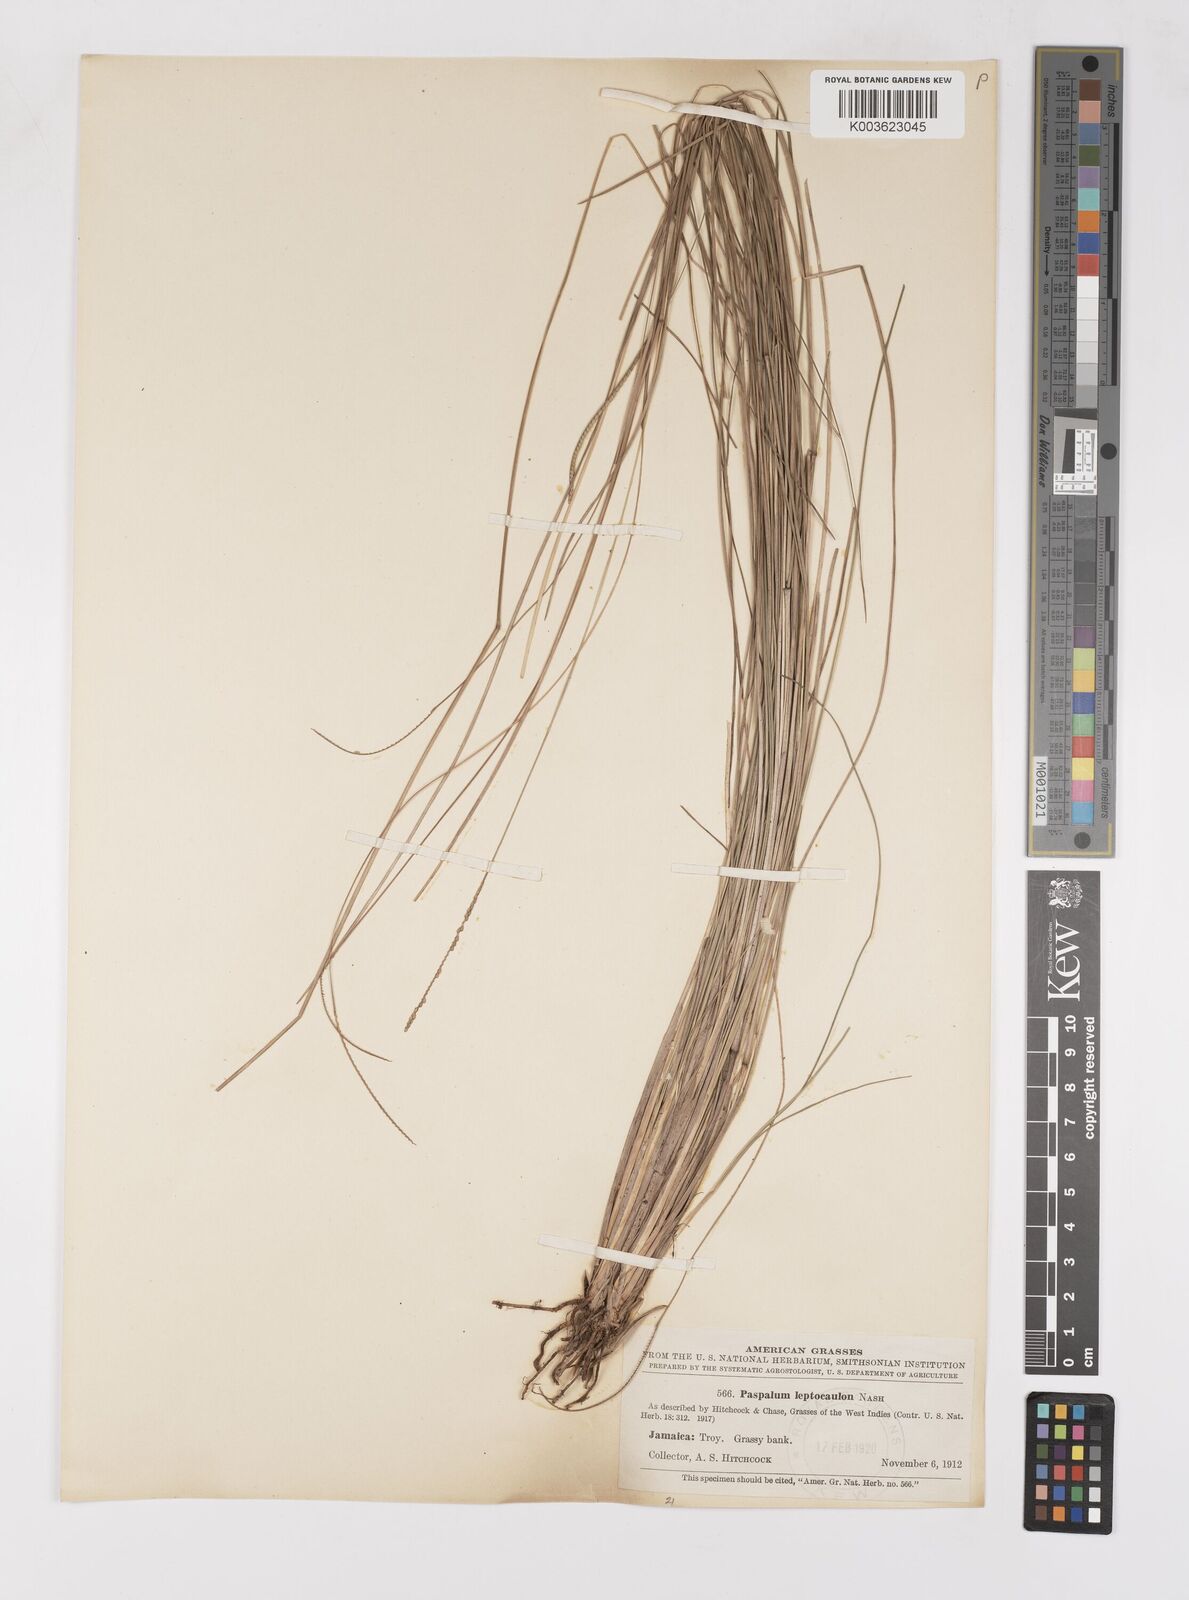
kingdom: Plantae
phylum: Tracheophyta
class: Liliopsida
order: Poales
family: Poaceae
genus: Paspalum
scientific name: Paspalum filiforme
